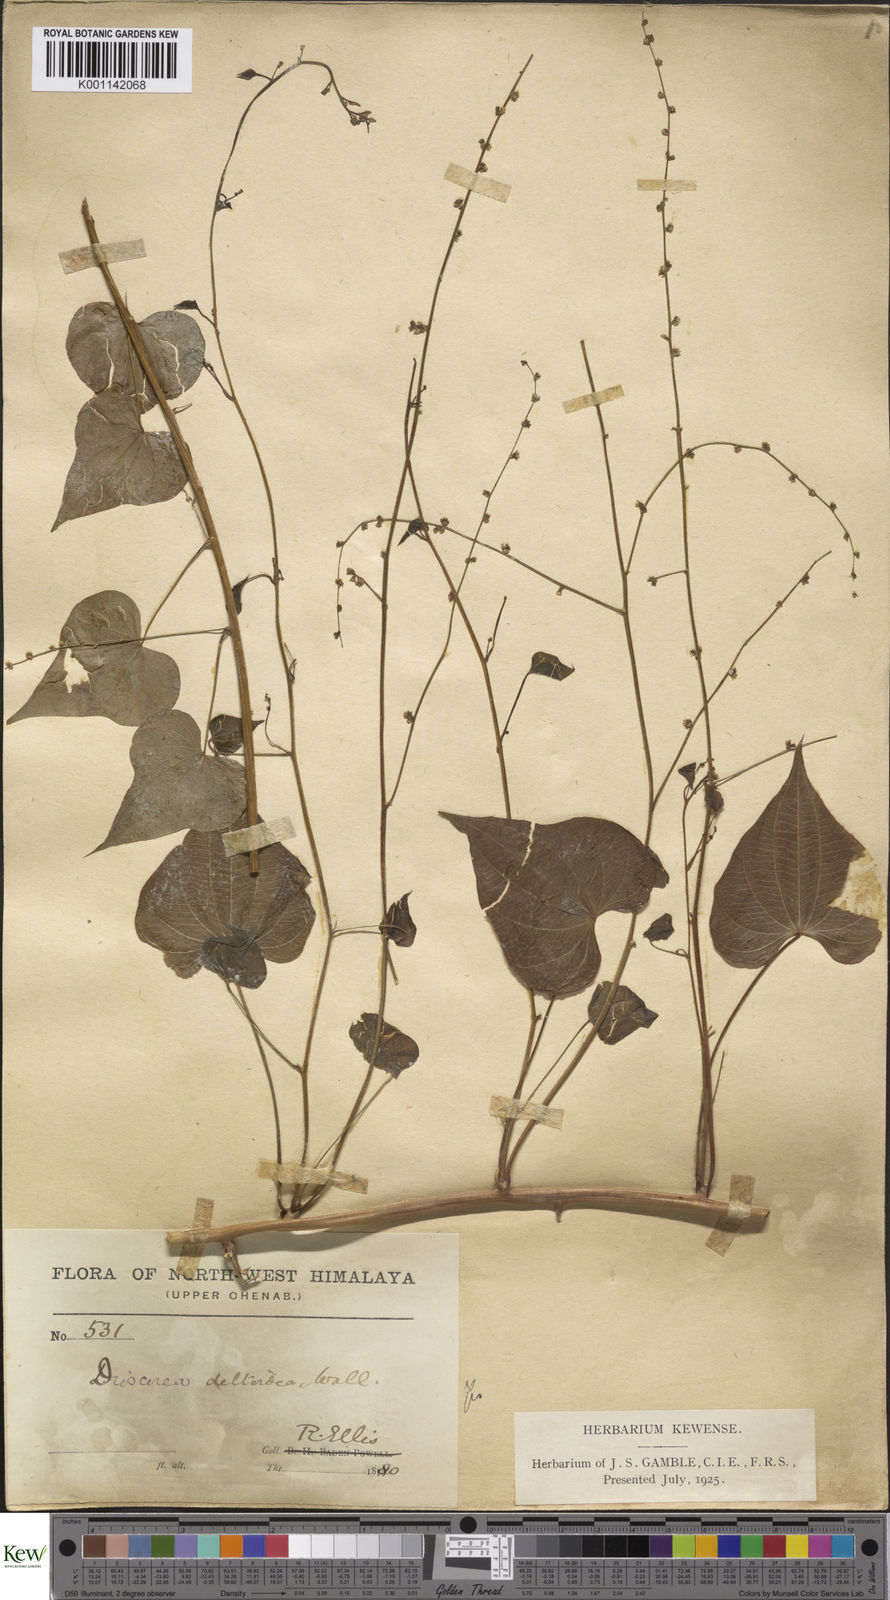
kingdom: Plantae
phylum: Tracheophyta
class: Liliopsida
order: Dioscoreales
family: Dioscoreaceae
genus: Dioscorea
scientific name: Dioscorea deltoidea
